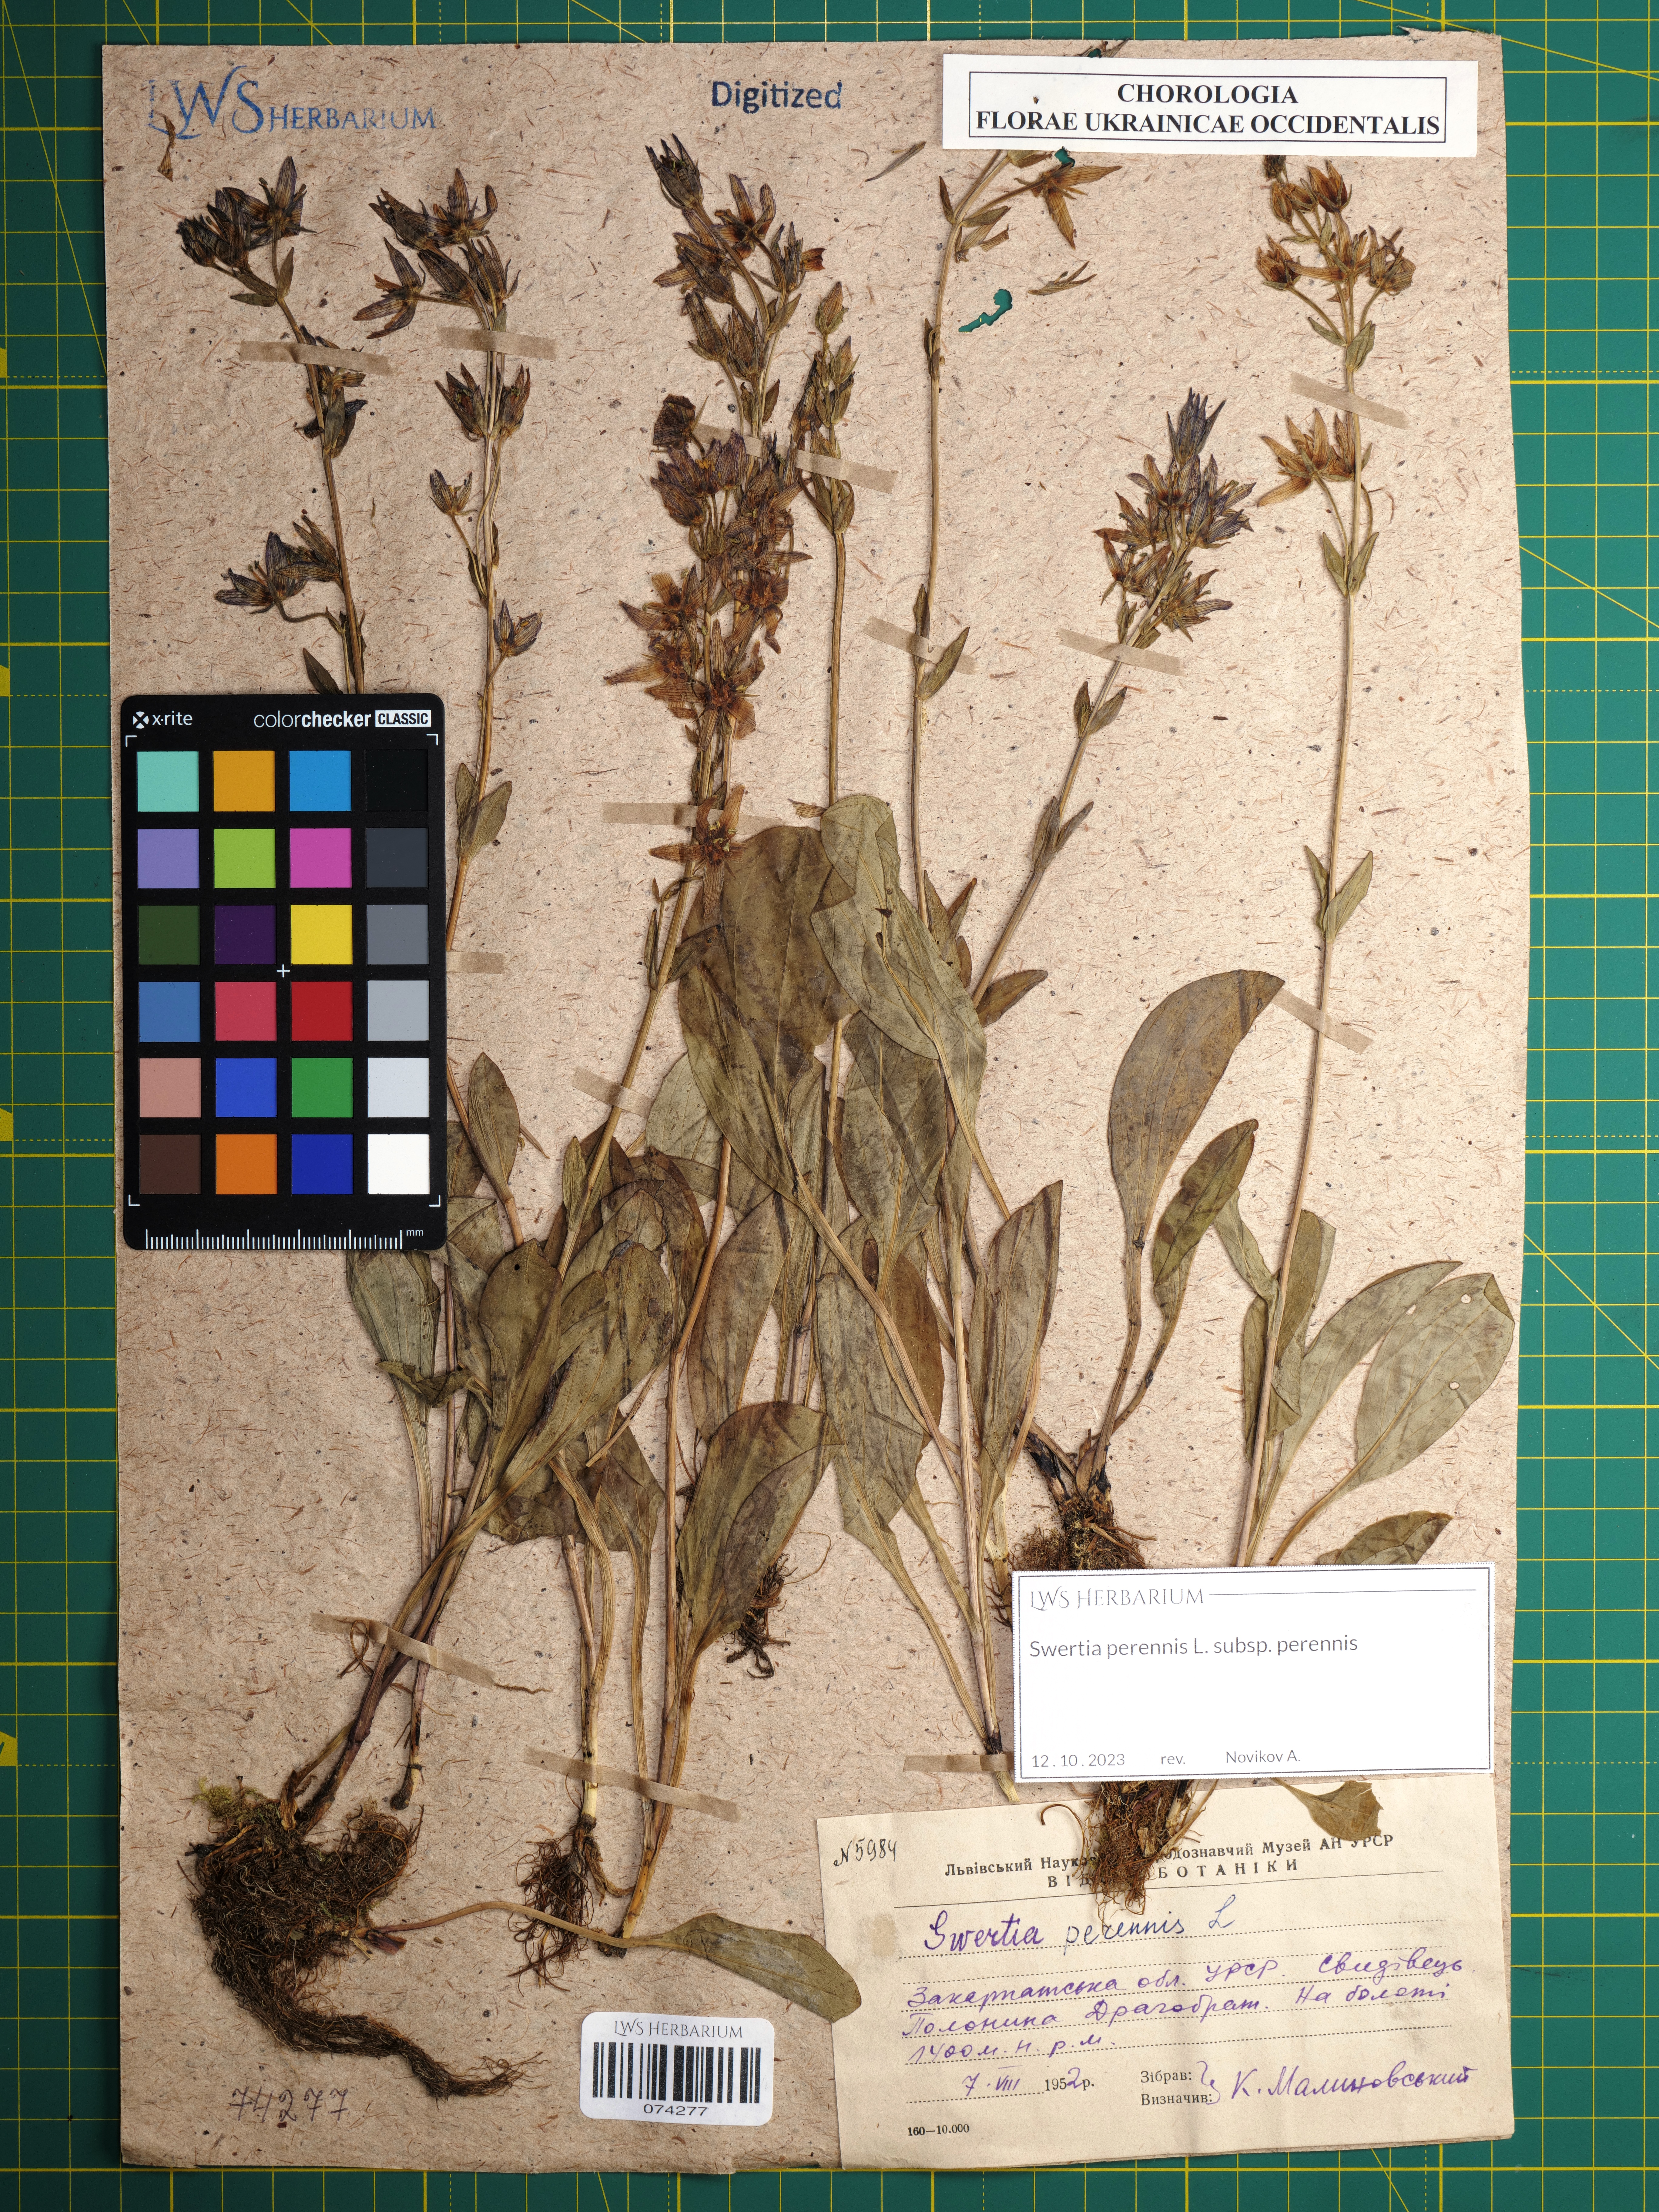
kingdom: Plantae
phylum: Tracheophyta
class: Magnoliopsida
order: Gentianales
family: Gentianaceae
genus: Swertia
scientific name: Swertia perennis
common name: Alpine bog swertia
